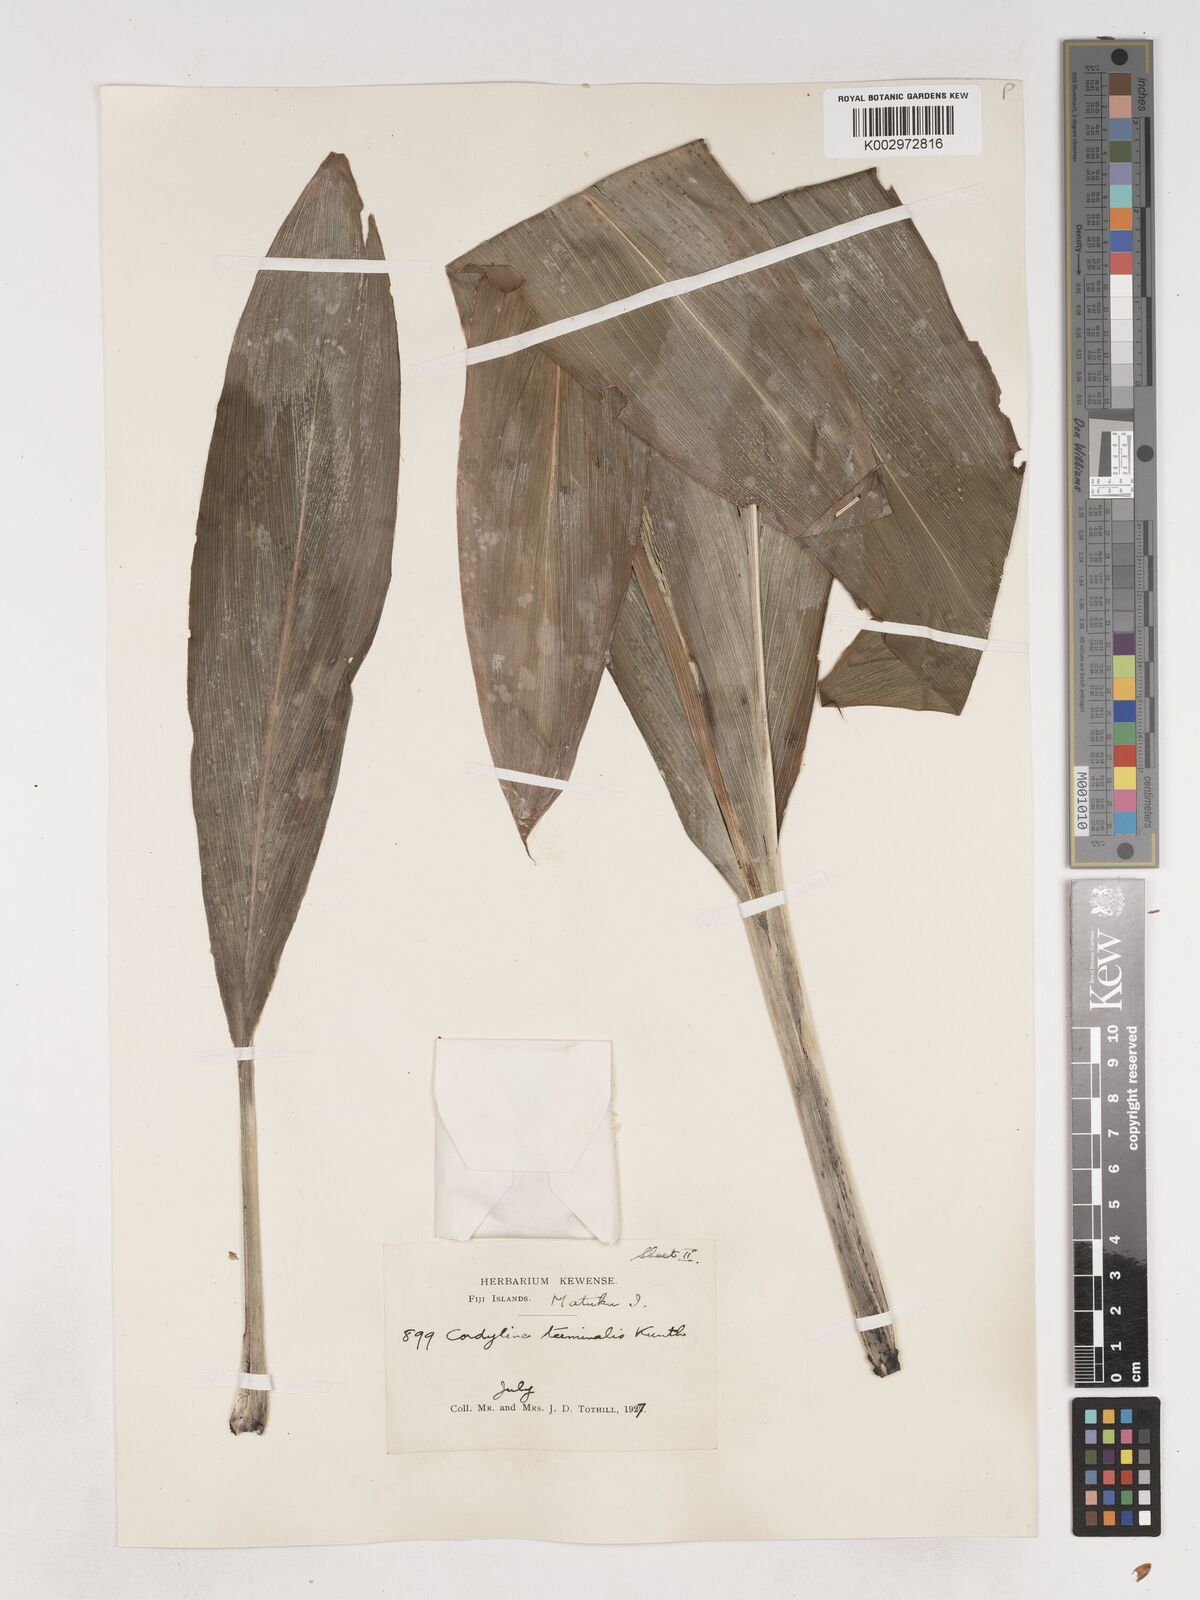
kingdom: Plantae
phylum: Tracheophyta
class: Liliopsida
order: Asparagales
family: Asparagaceae
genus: Cordyline
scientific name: Cordyline fruticosa
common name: Good-luck-plant
